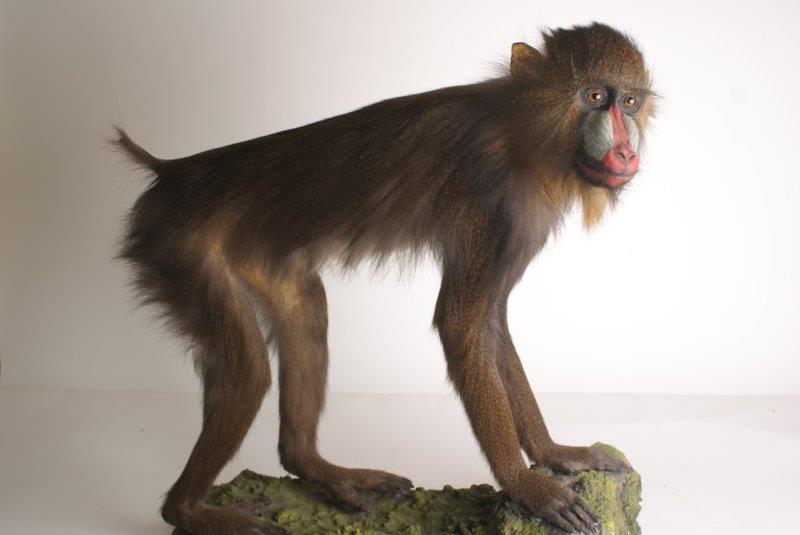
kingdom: Animalia
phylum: Chordata
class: Mammalia
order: Primates
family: Cercopithecidae
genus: Mandrillus
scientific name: Mandrillus sphinx
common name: Mandrill
